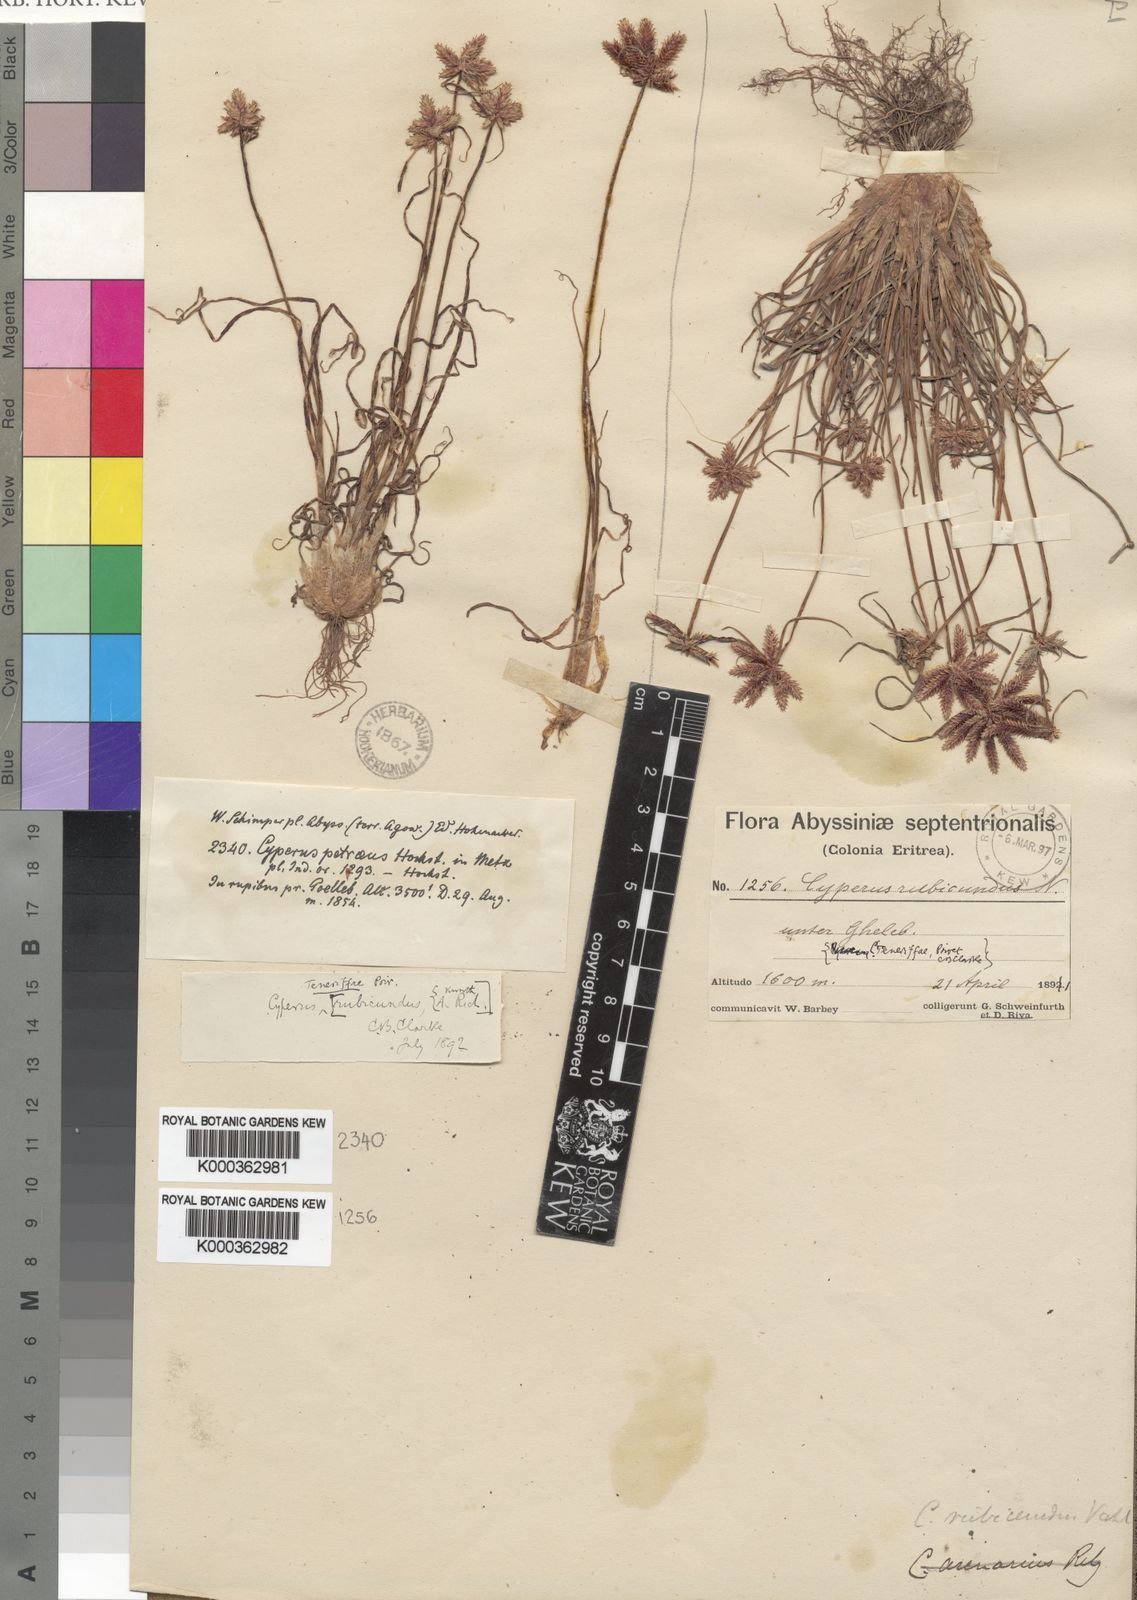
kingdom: Plantae
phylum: Tracheophyta
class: Liliopsida
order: Poales
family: Cyperaceae
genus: Cyperus
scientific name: Cyperus rubicundus
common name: Coco-grass
